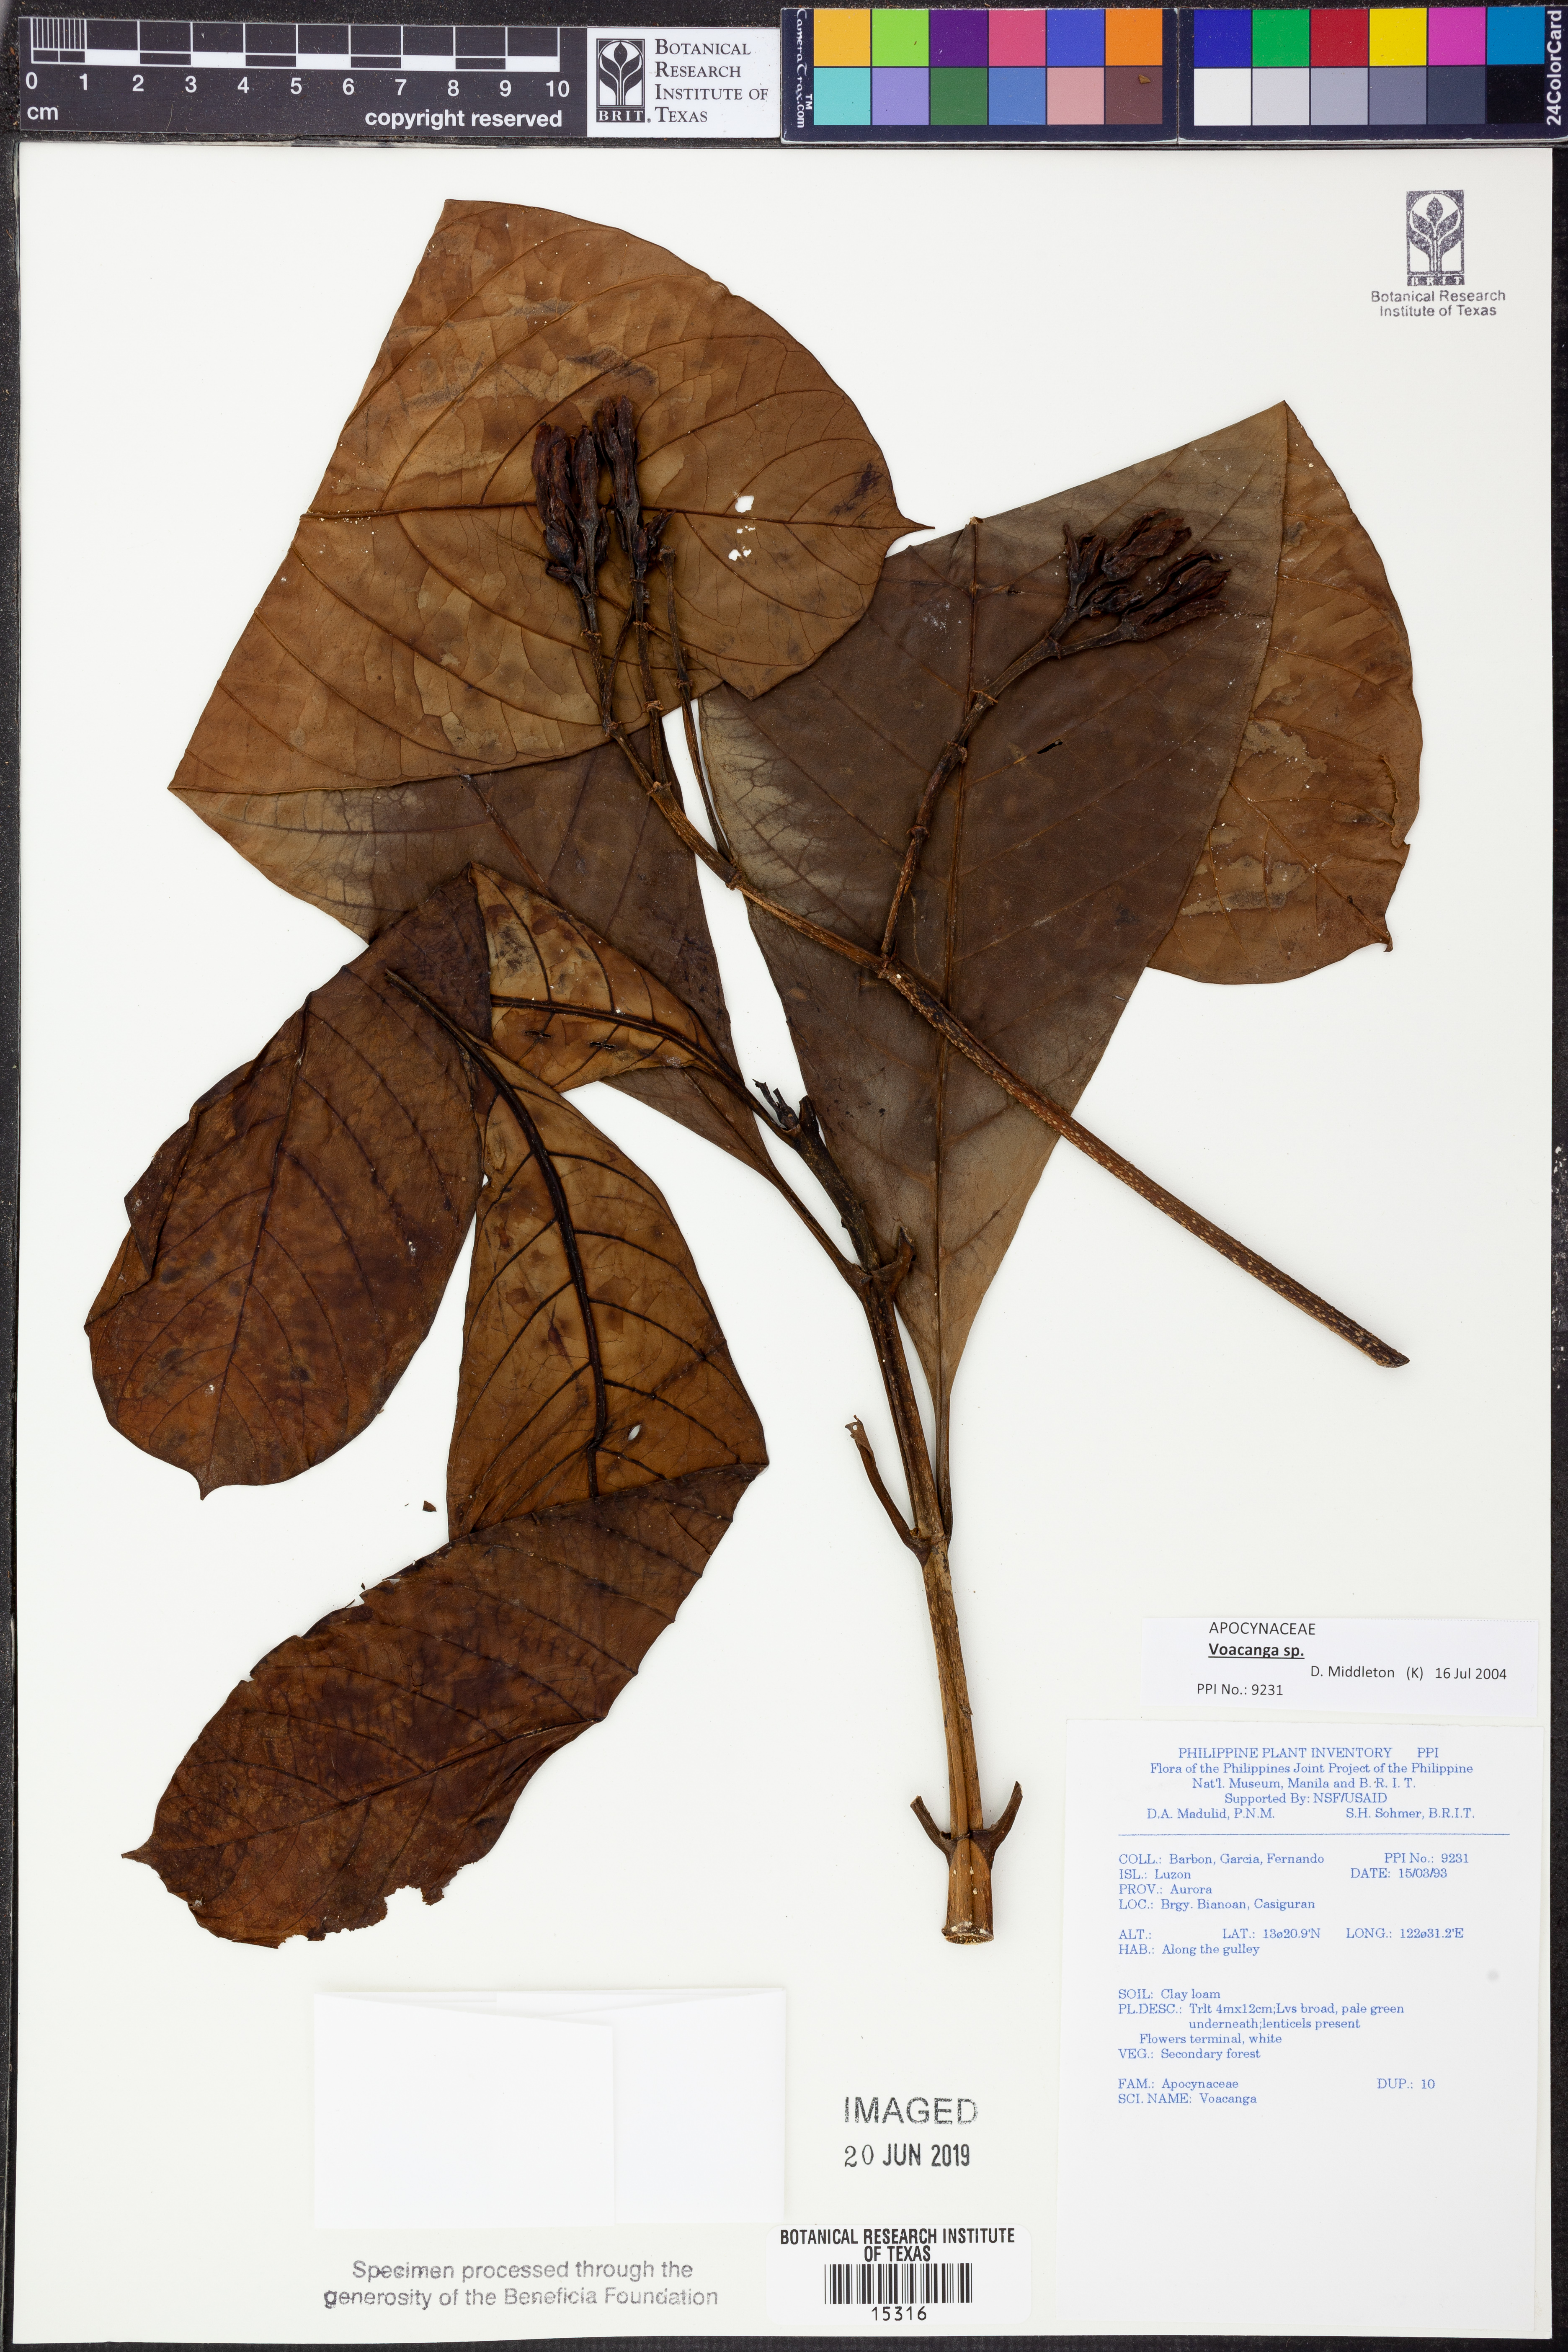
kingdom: Plantae
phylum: Tracheophyta
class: Magnoliopsida
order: Gentianales
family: Apocynaceae
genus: Voacanga
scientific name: Voacanga
